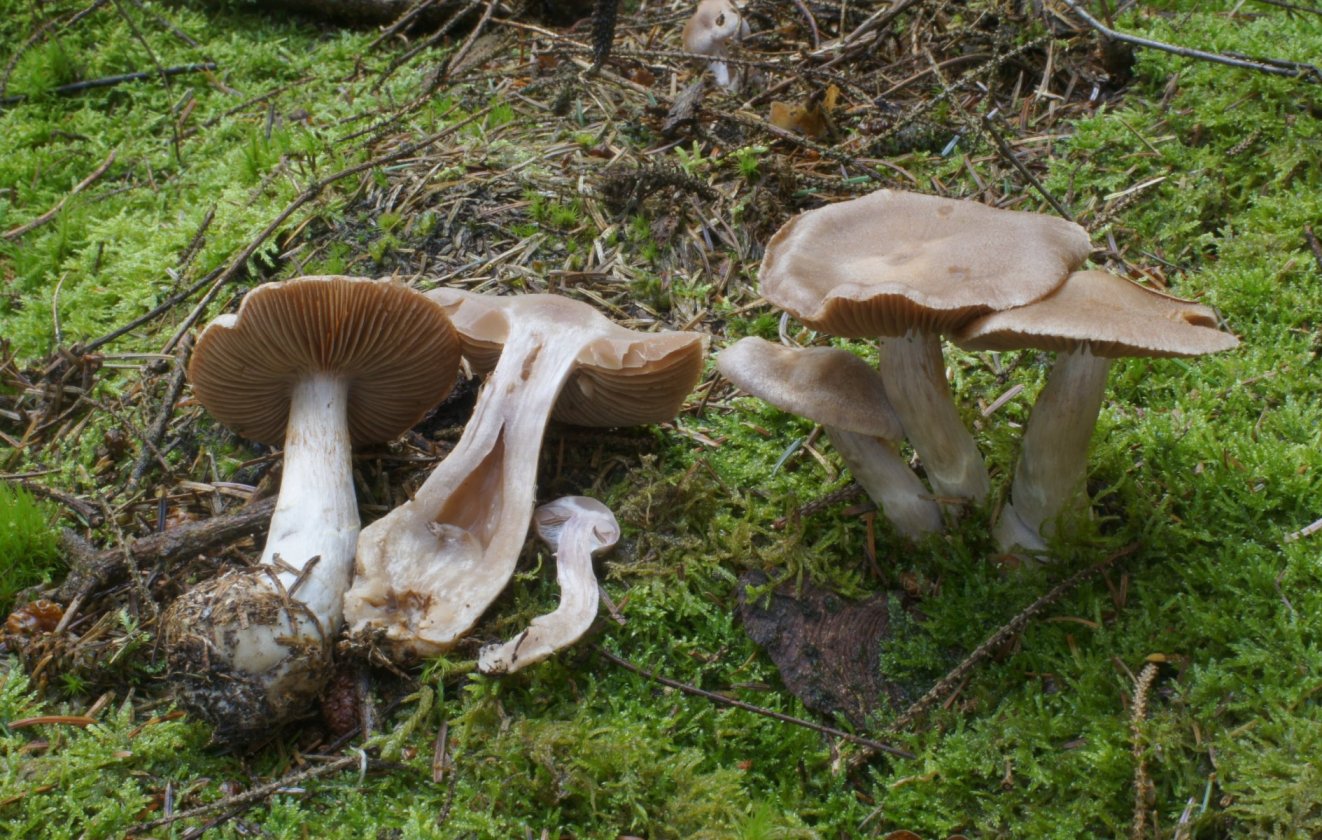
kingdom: Fungi
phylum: Basidiomycota
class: Agaricomycetes
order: Agaricales
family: Cortinariaceae
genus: Cortinarius
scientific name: Cortinarius malachius
